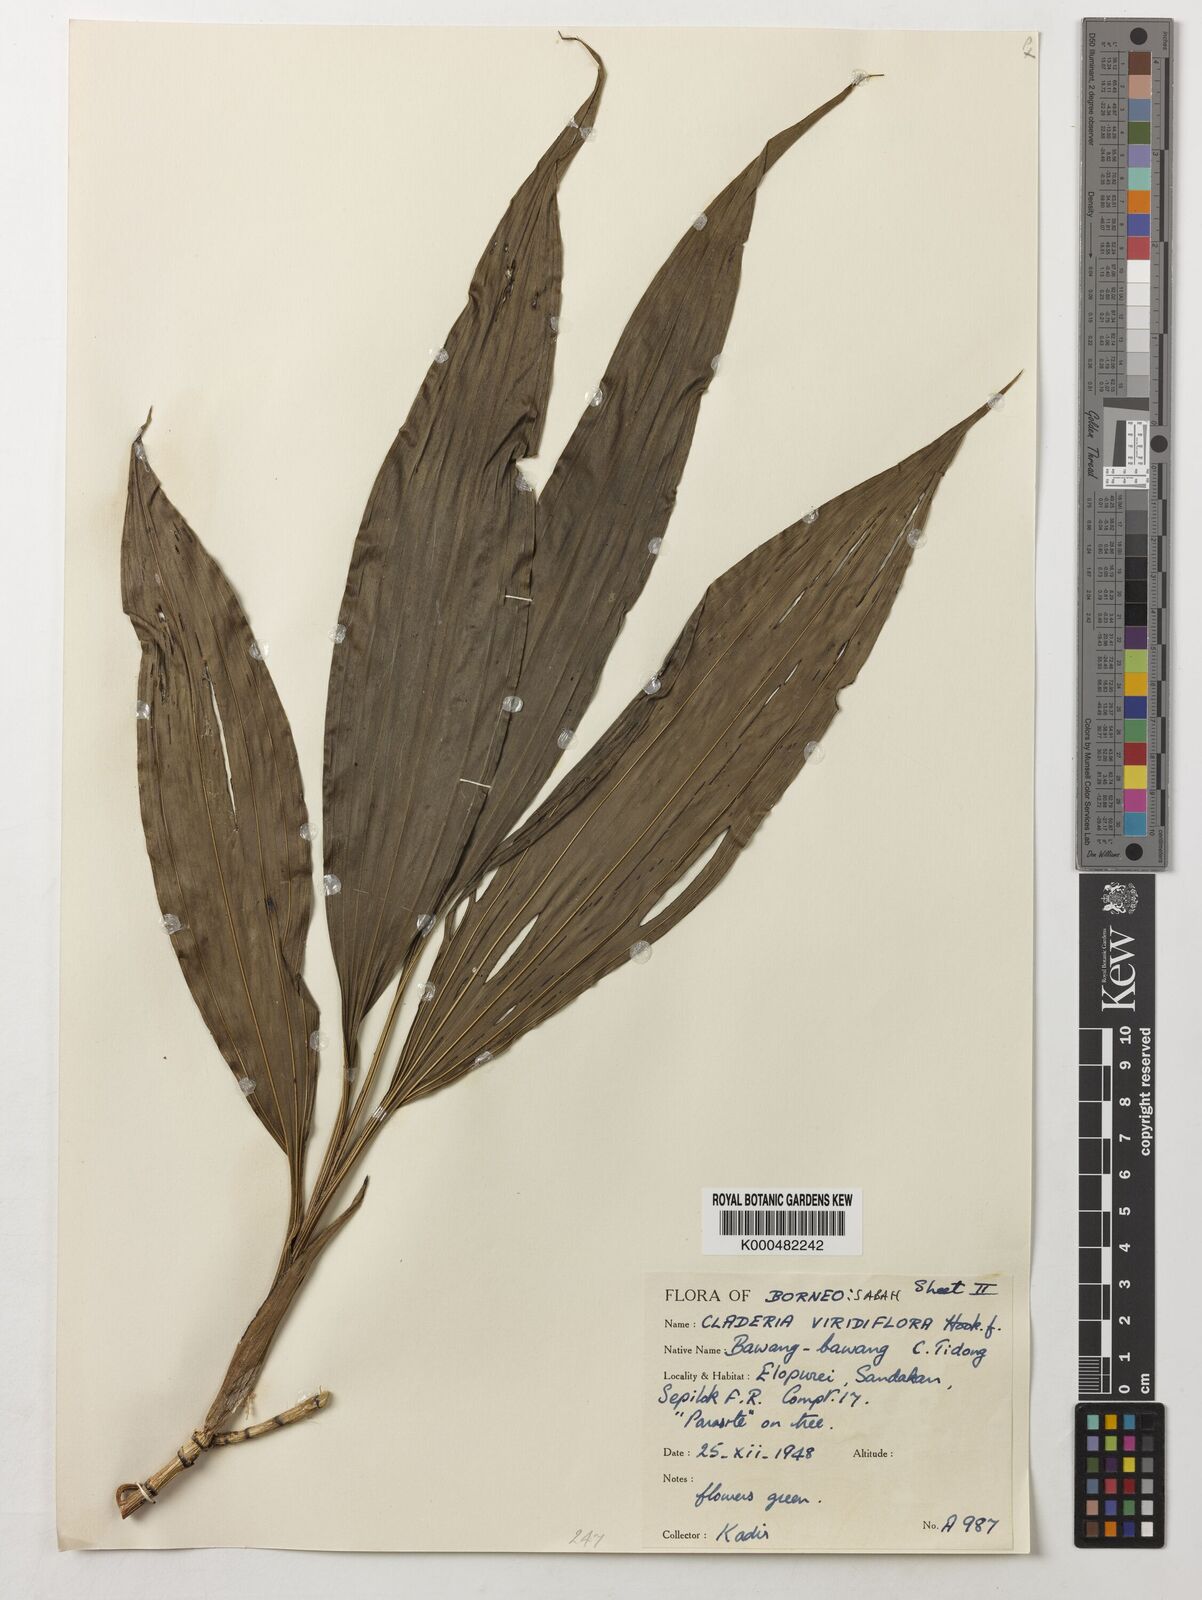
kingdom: Plantae
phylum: Tracheophyta
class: Liliopsida
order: Asparagales
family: Orchidaceae
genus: Claderia
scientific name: Claderia
